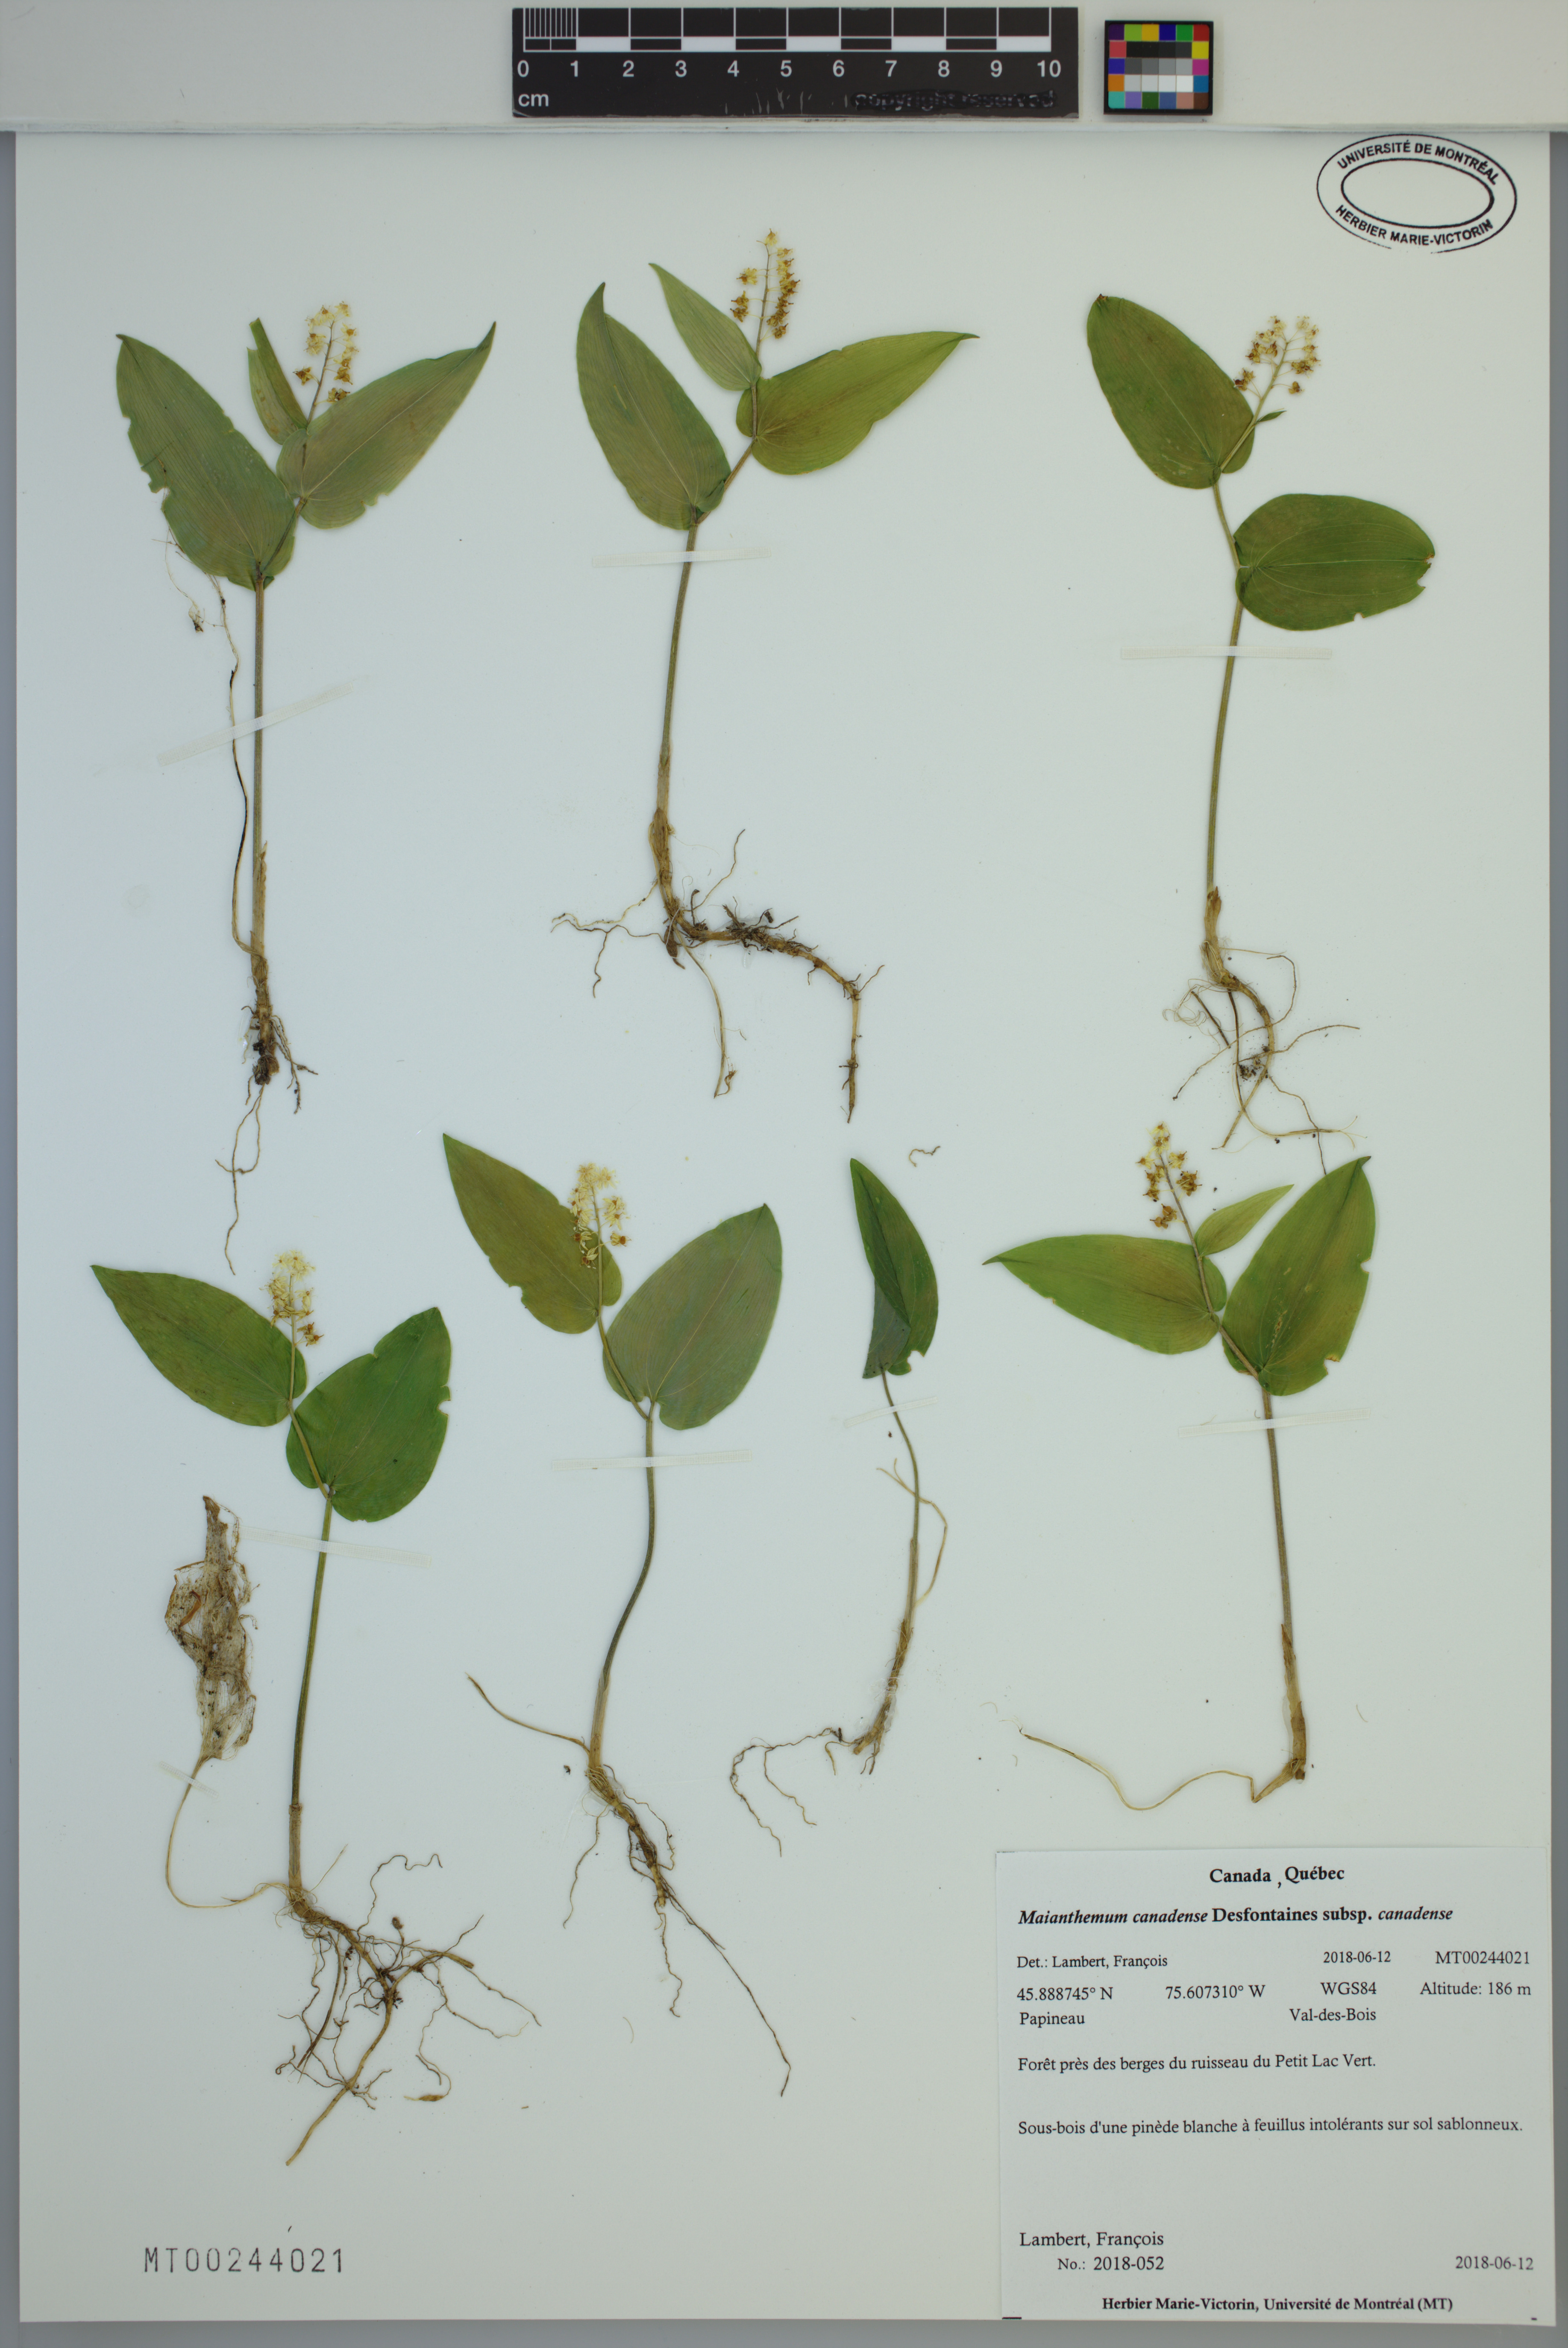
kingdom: Plantae
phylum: Tracheophyta
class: Liliopsida
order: Asparagales
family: Asparagaceae
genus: Maianthemum
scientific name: Maianthemum canadense
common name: False lily-of-the-valley
